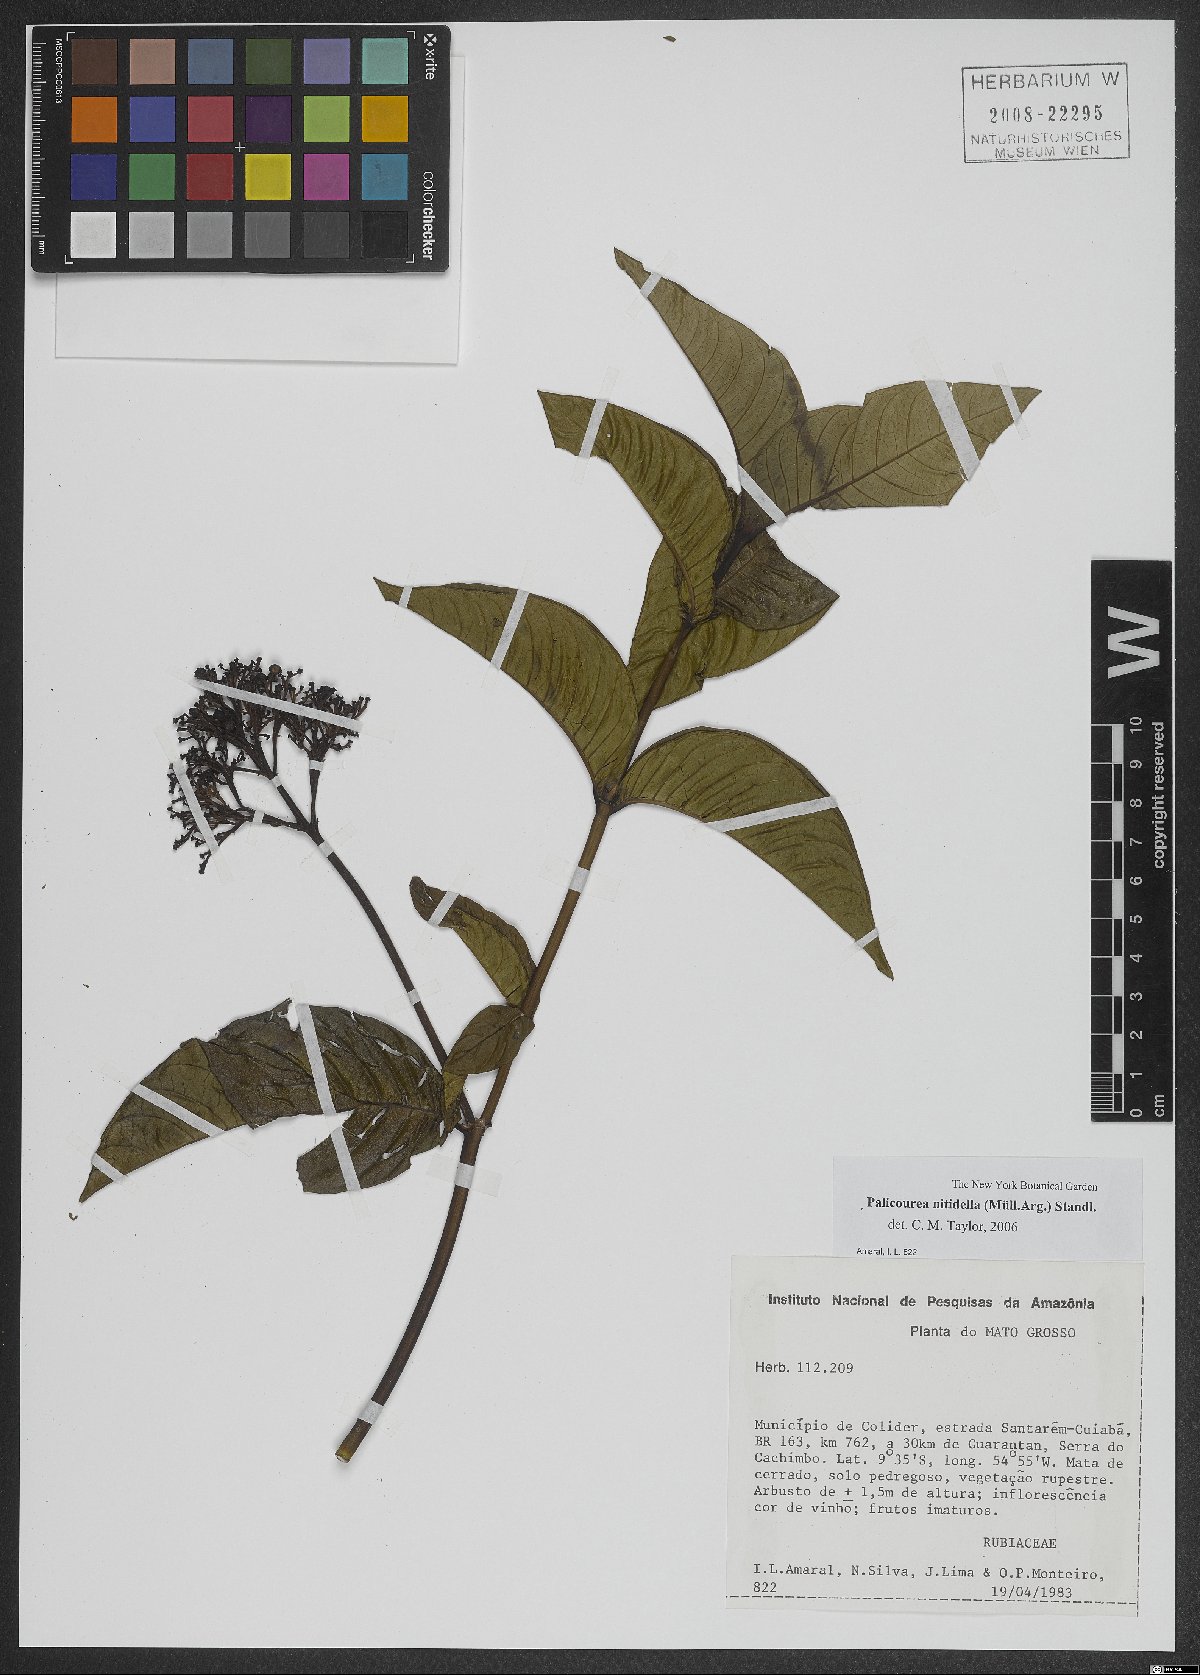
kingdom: Plantae
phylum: Tracheophyta
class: Magnoliopsida
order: Gentianales
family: Rubiaceae
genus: Palicourea
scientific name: Palicourea nitidella
